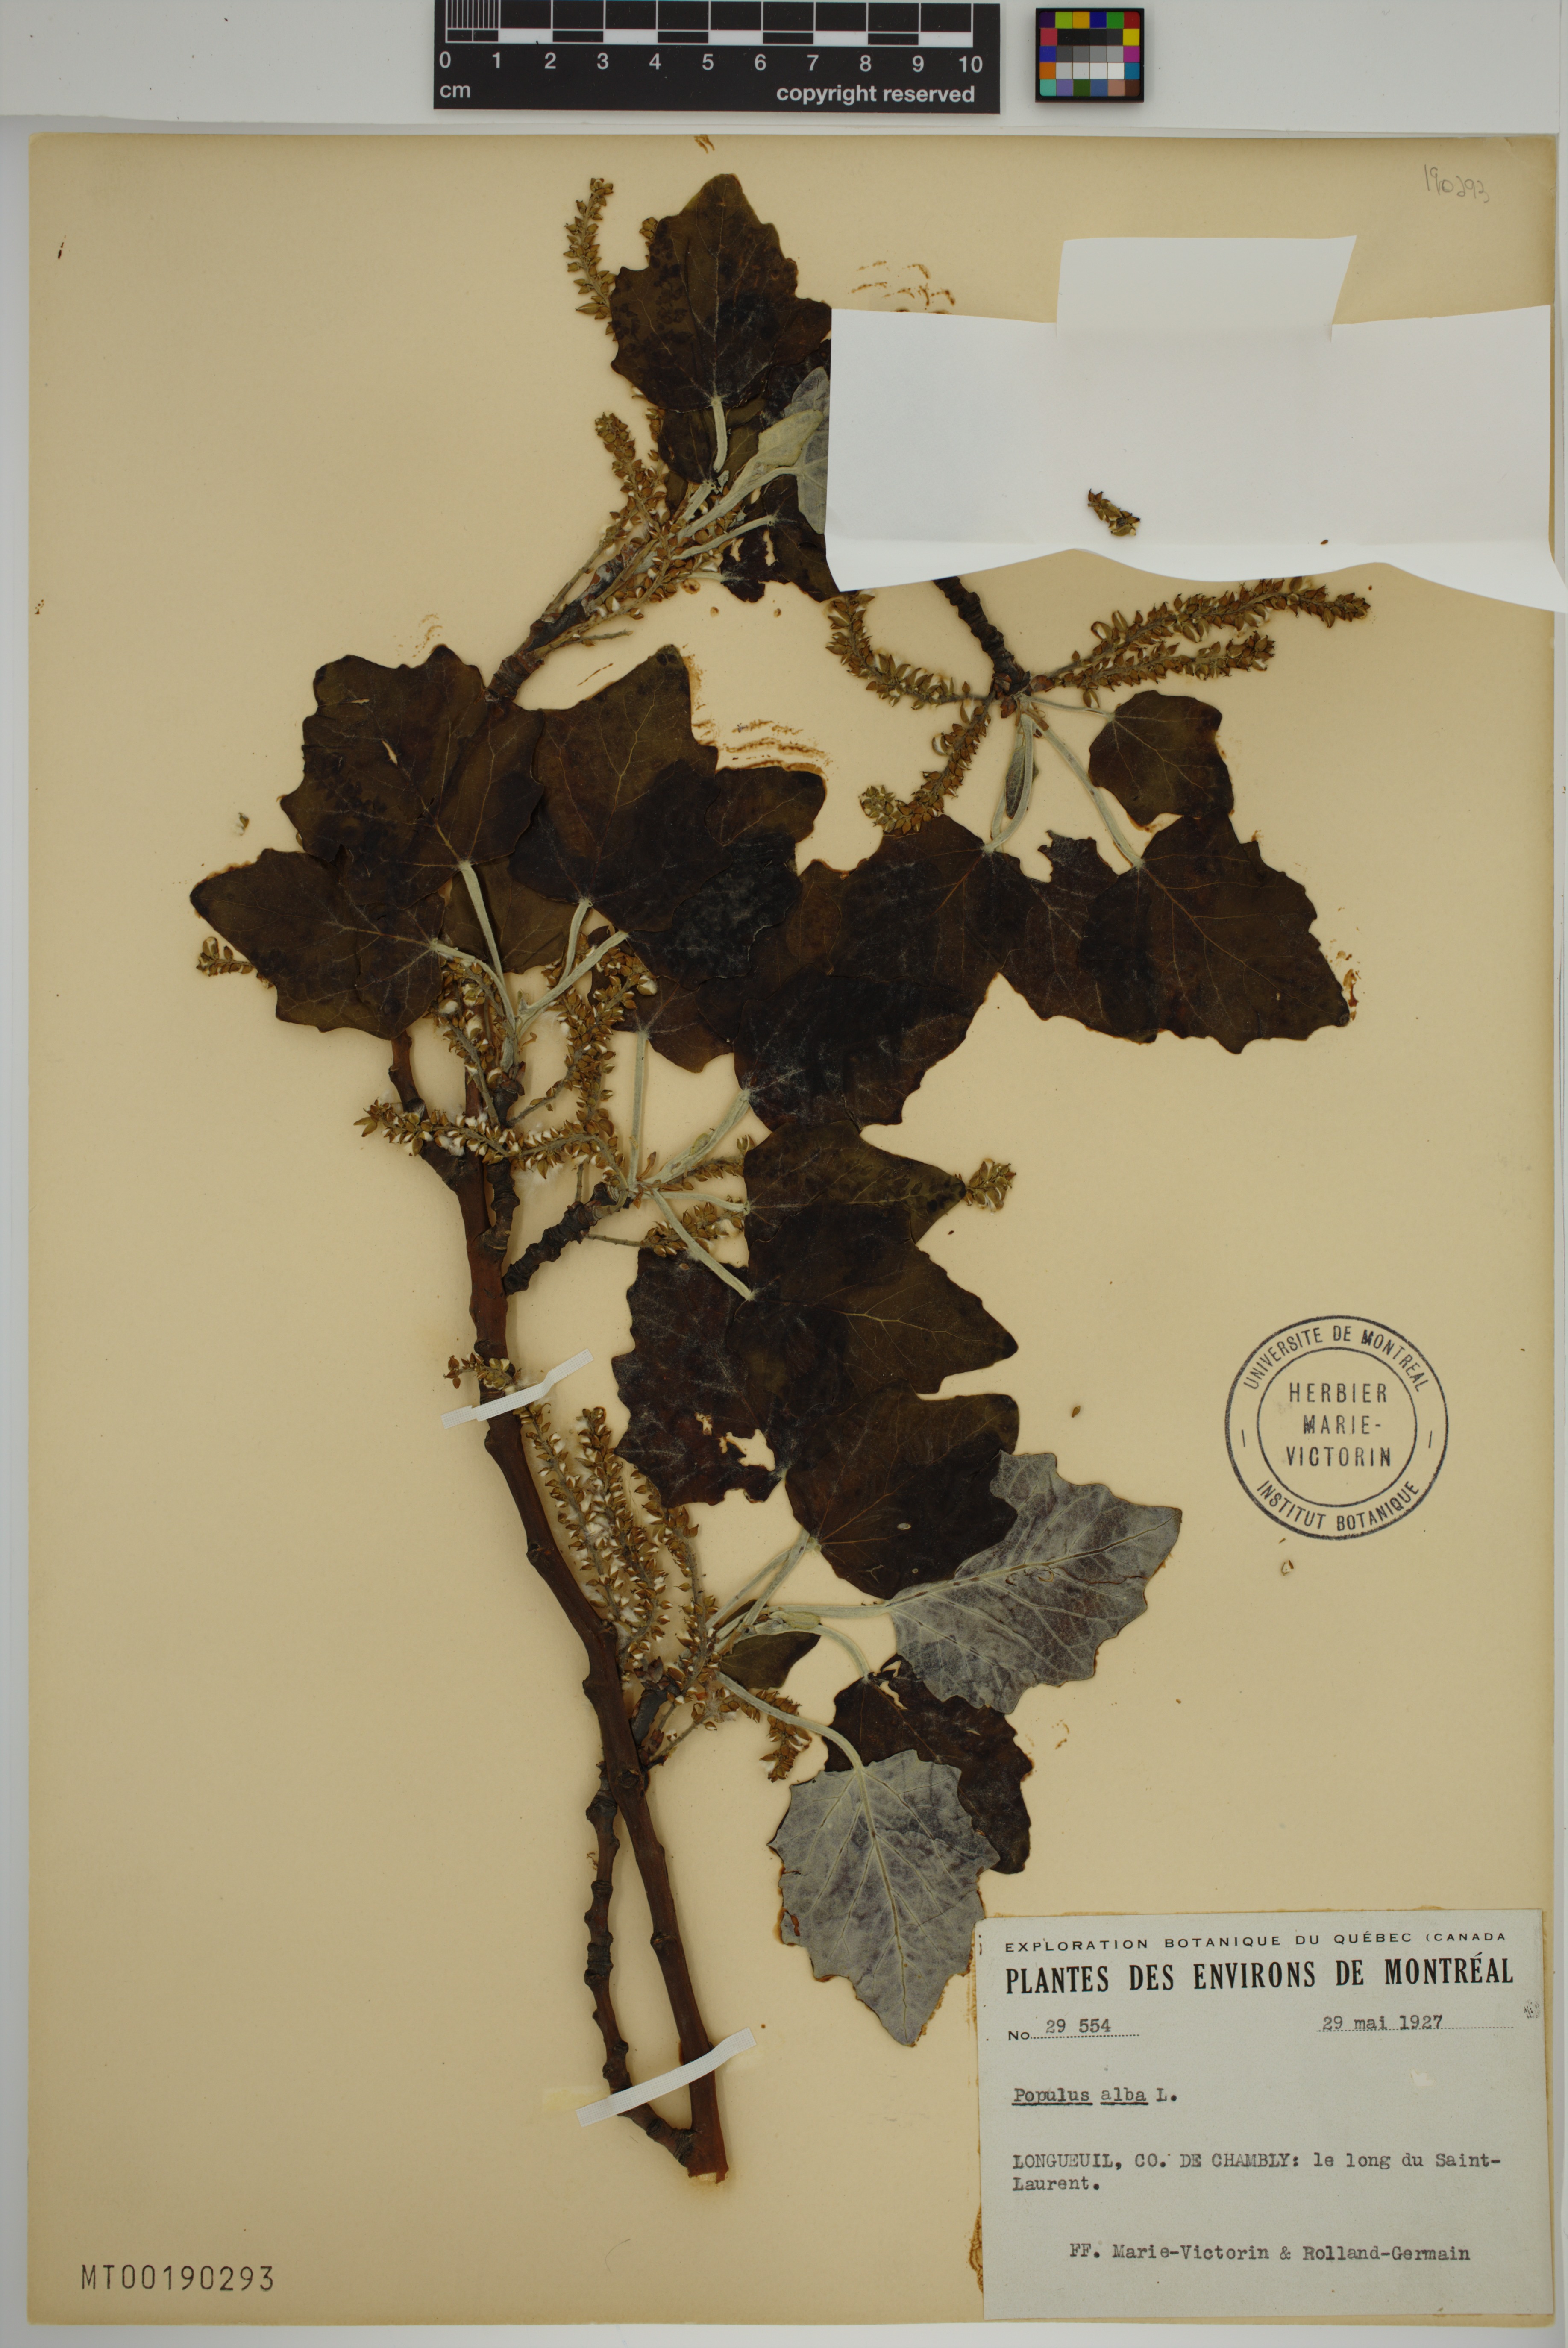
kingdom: Plantae
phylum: Tracheophyta
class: Magnoliopsida
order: Malpighiales
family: Salicaceae
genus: Populus
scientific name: Populus alba
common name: White poplar
